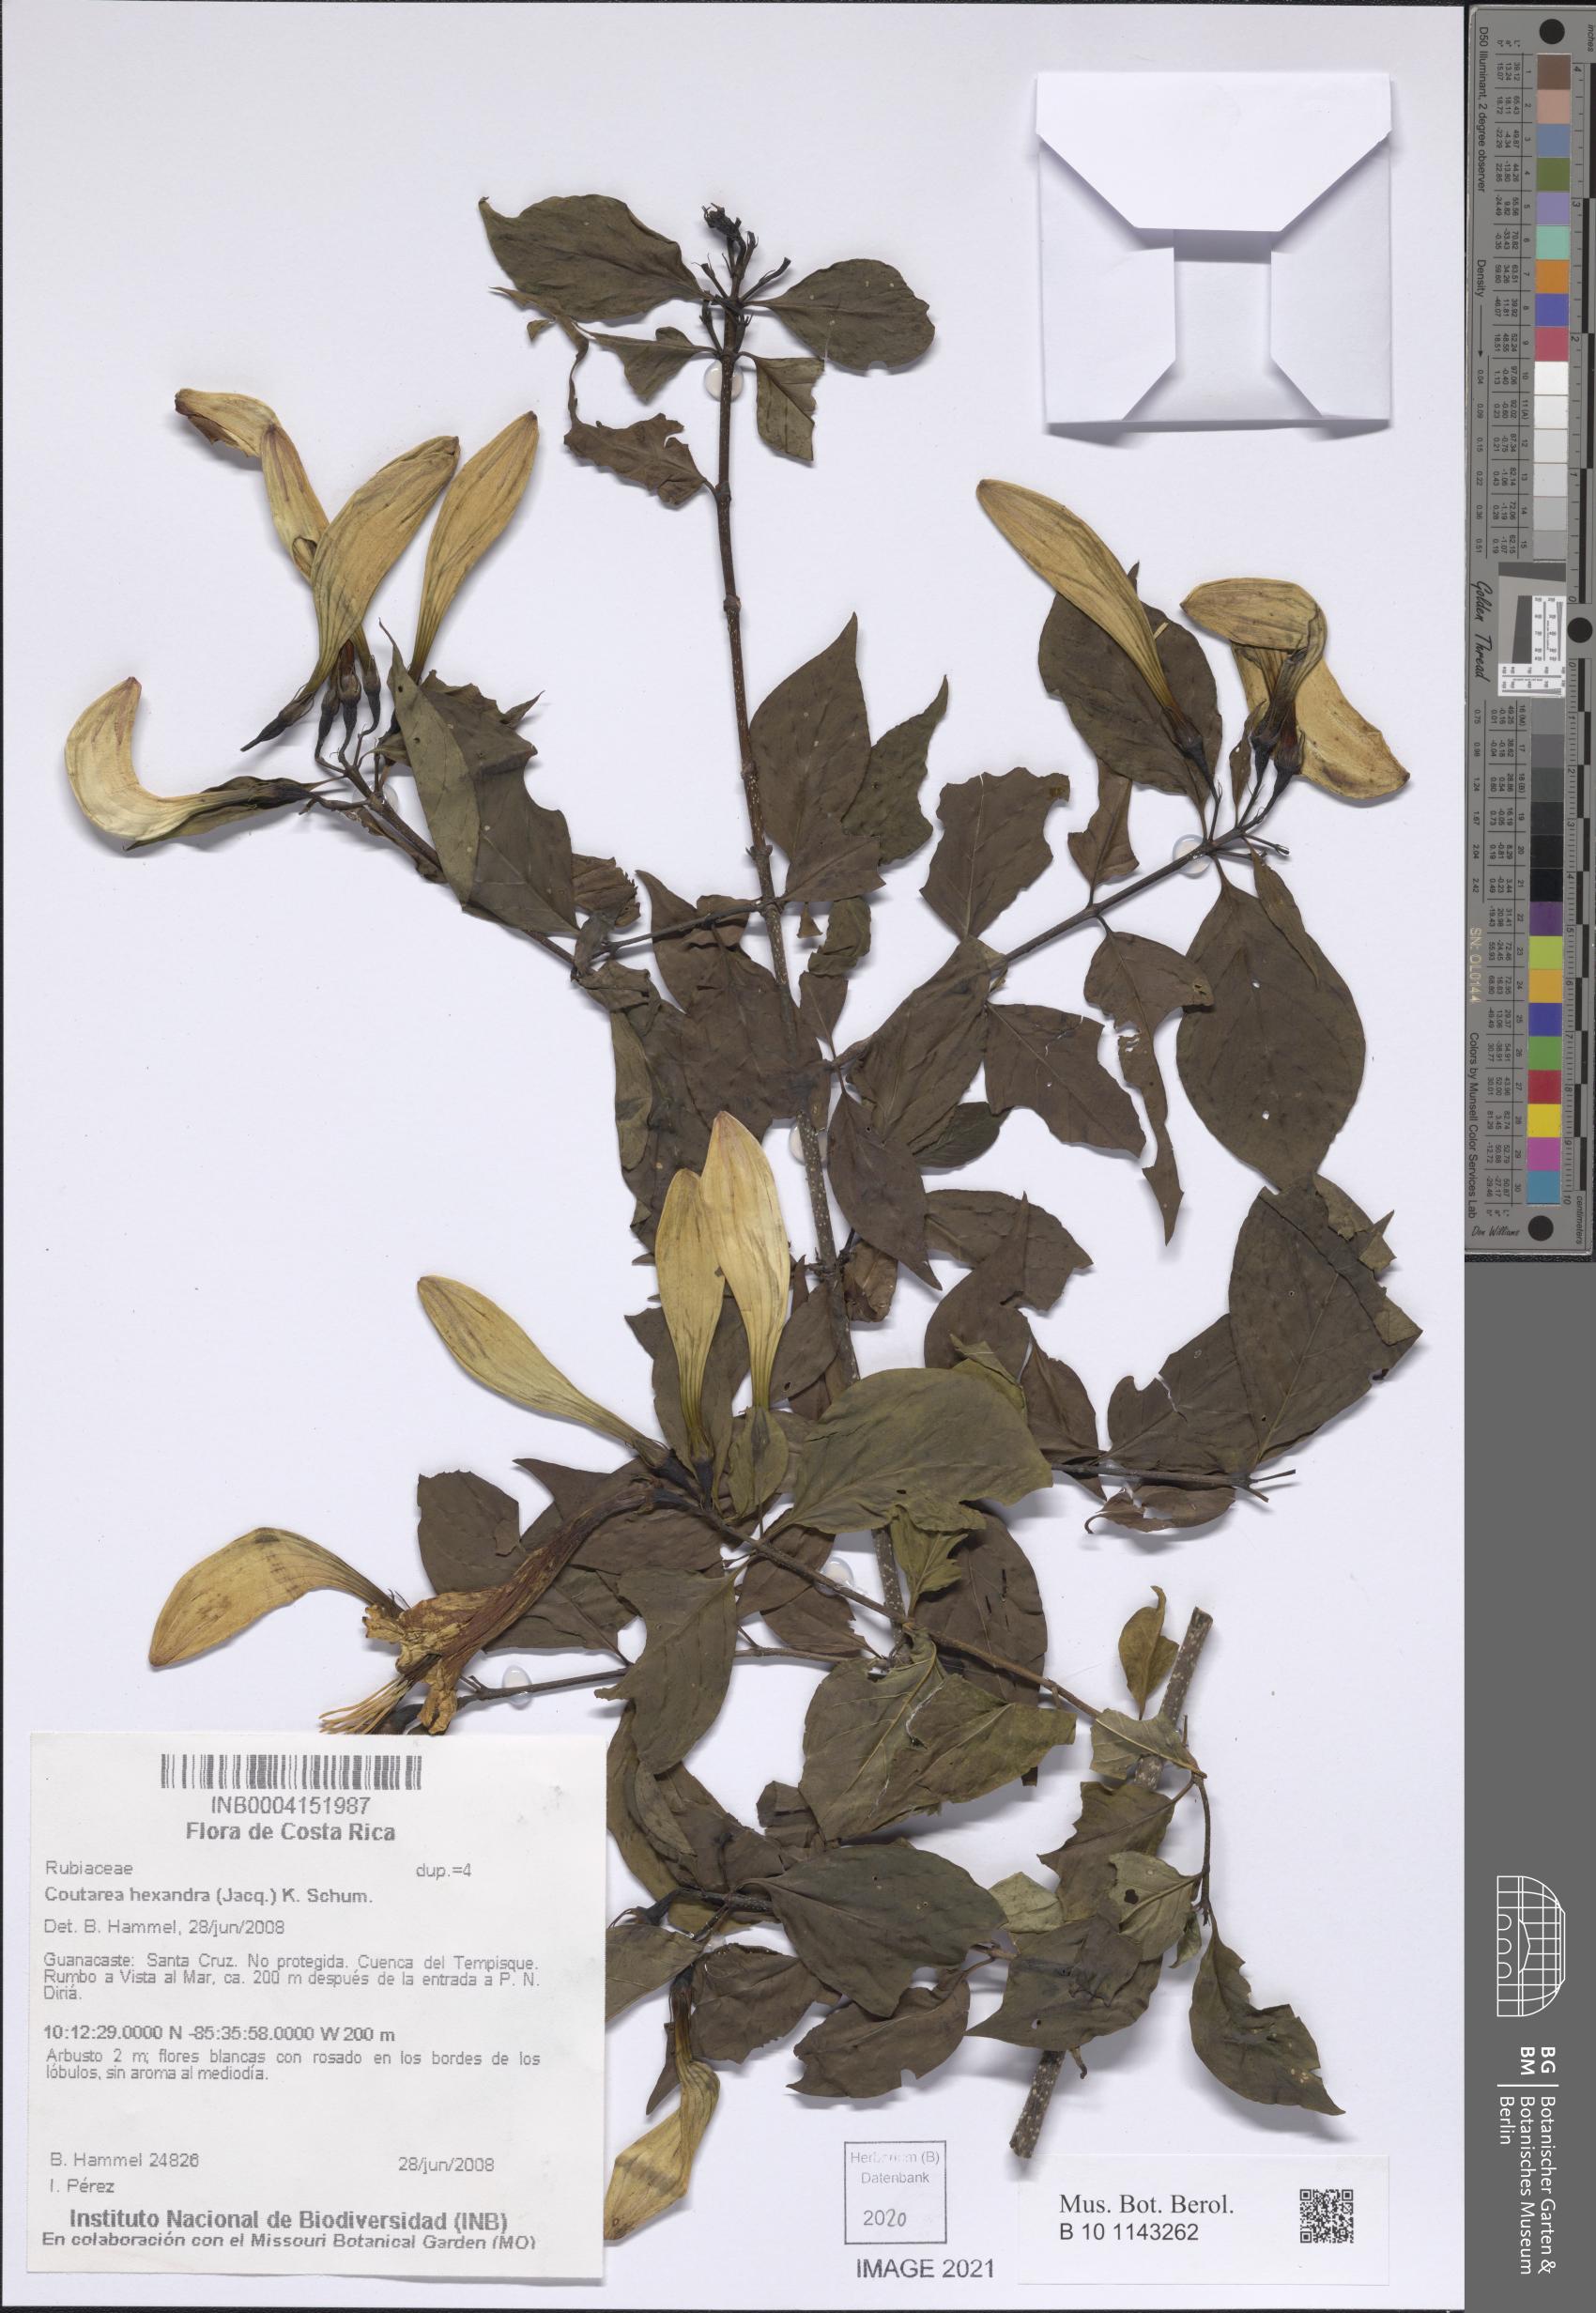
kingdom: Plantae
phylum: Tracheophyta
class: Magnoliopsida
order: Gentianales
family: Rubiaceae
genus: Coutarea
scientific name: Coutarea hexandra
